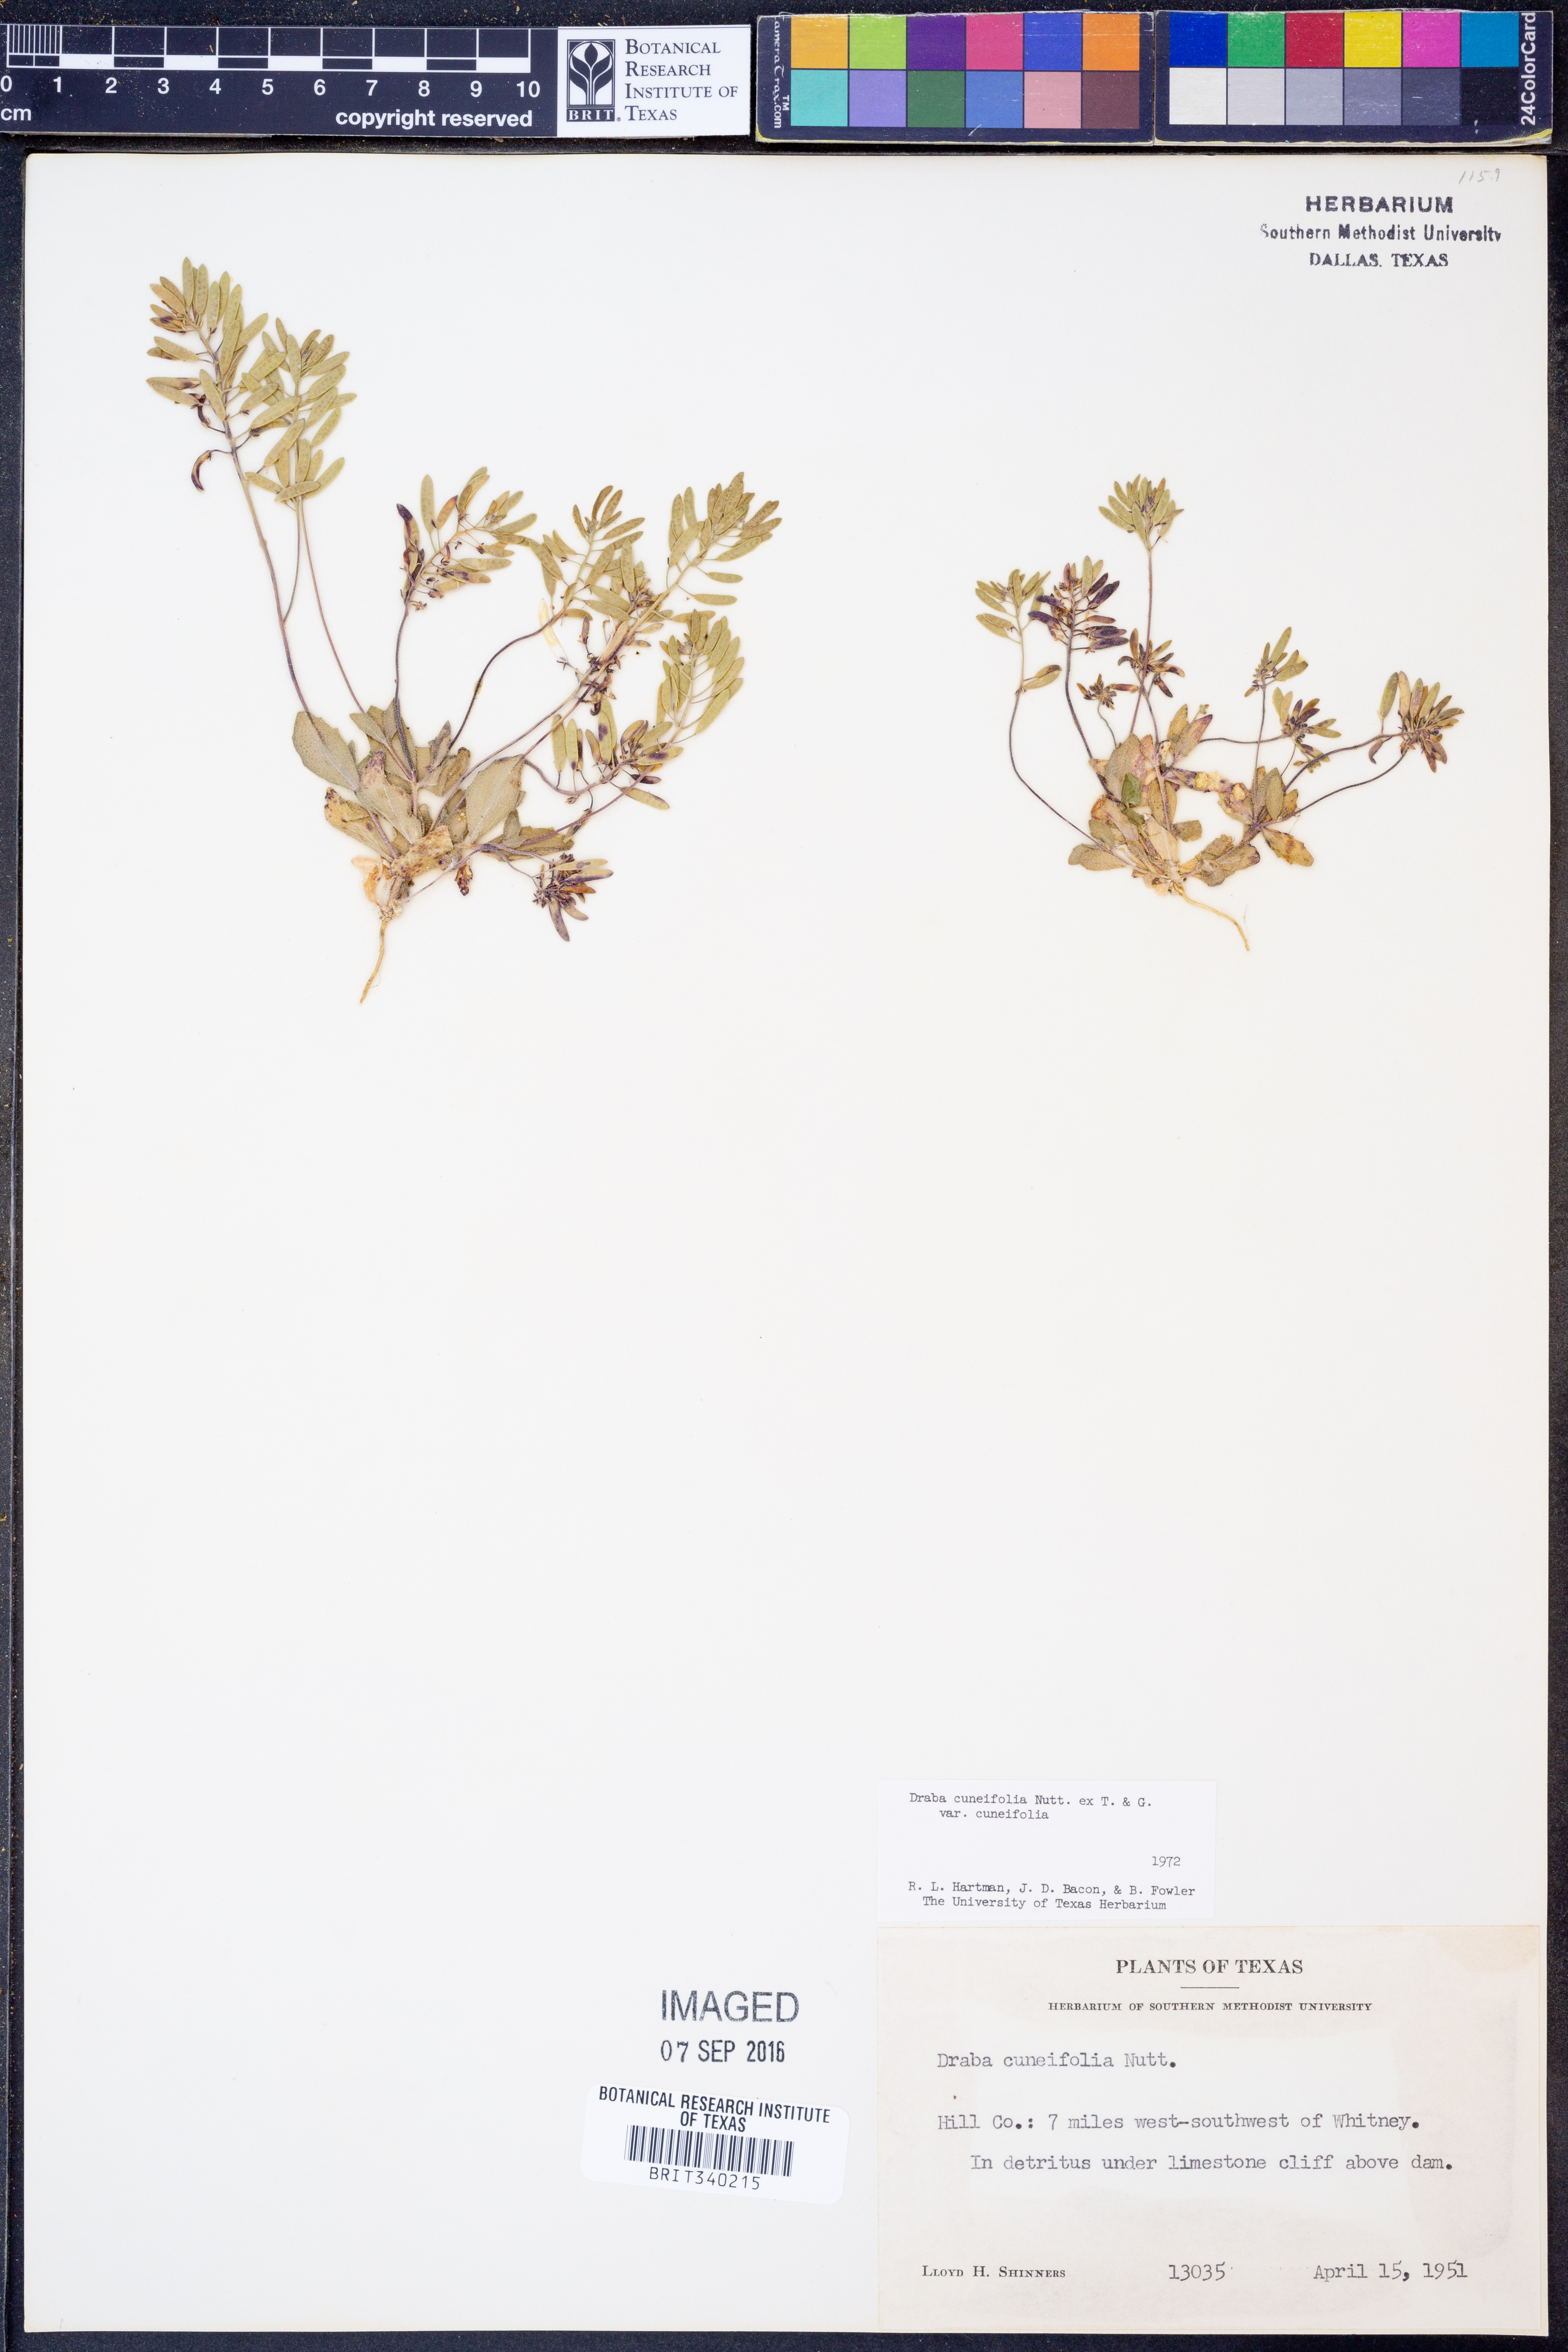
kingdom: Plantae
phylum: Tracheophyta
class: Magnoliopsida
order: Brassicales
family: Brassicaceae
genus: Tomostima
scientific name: Tomostima cuneifolia
